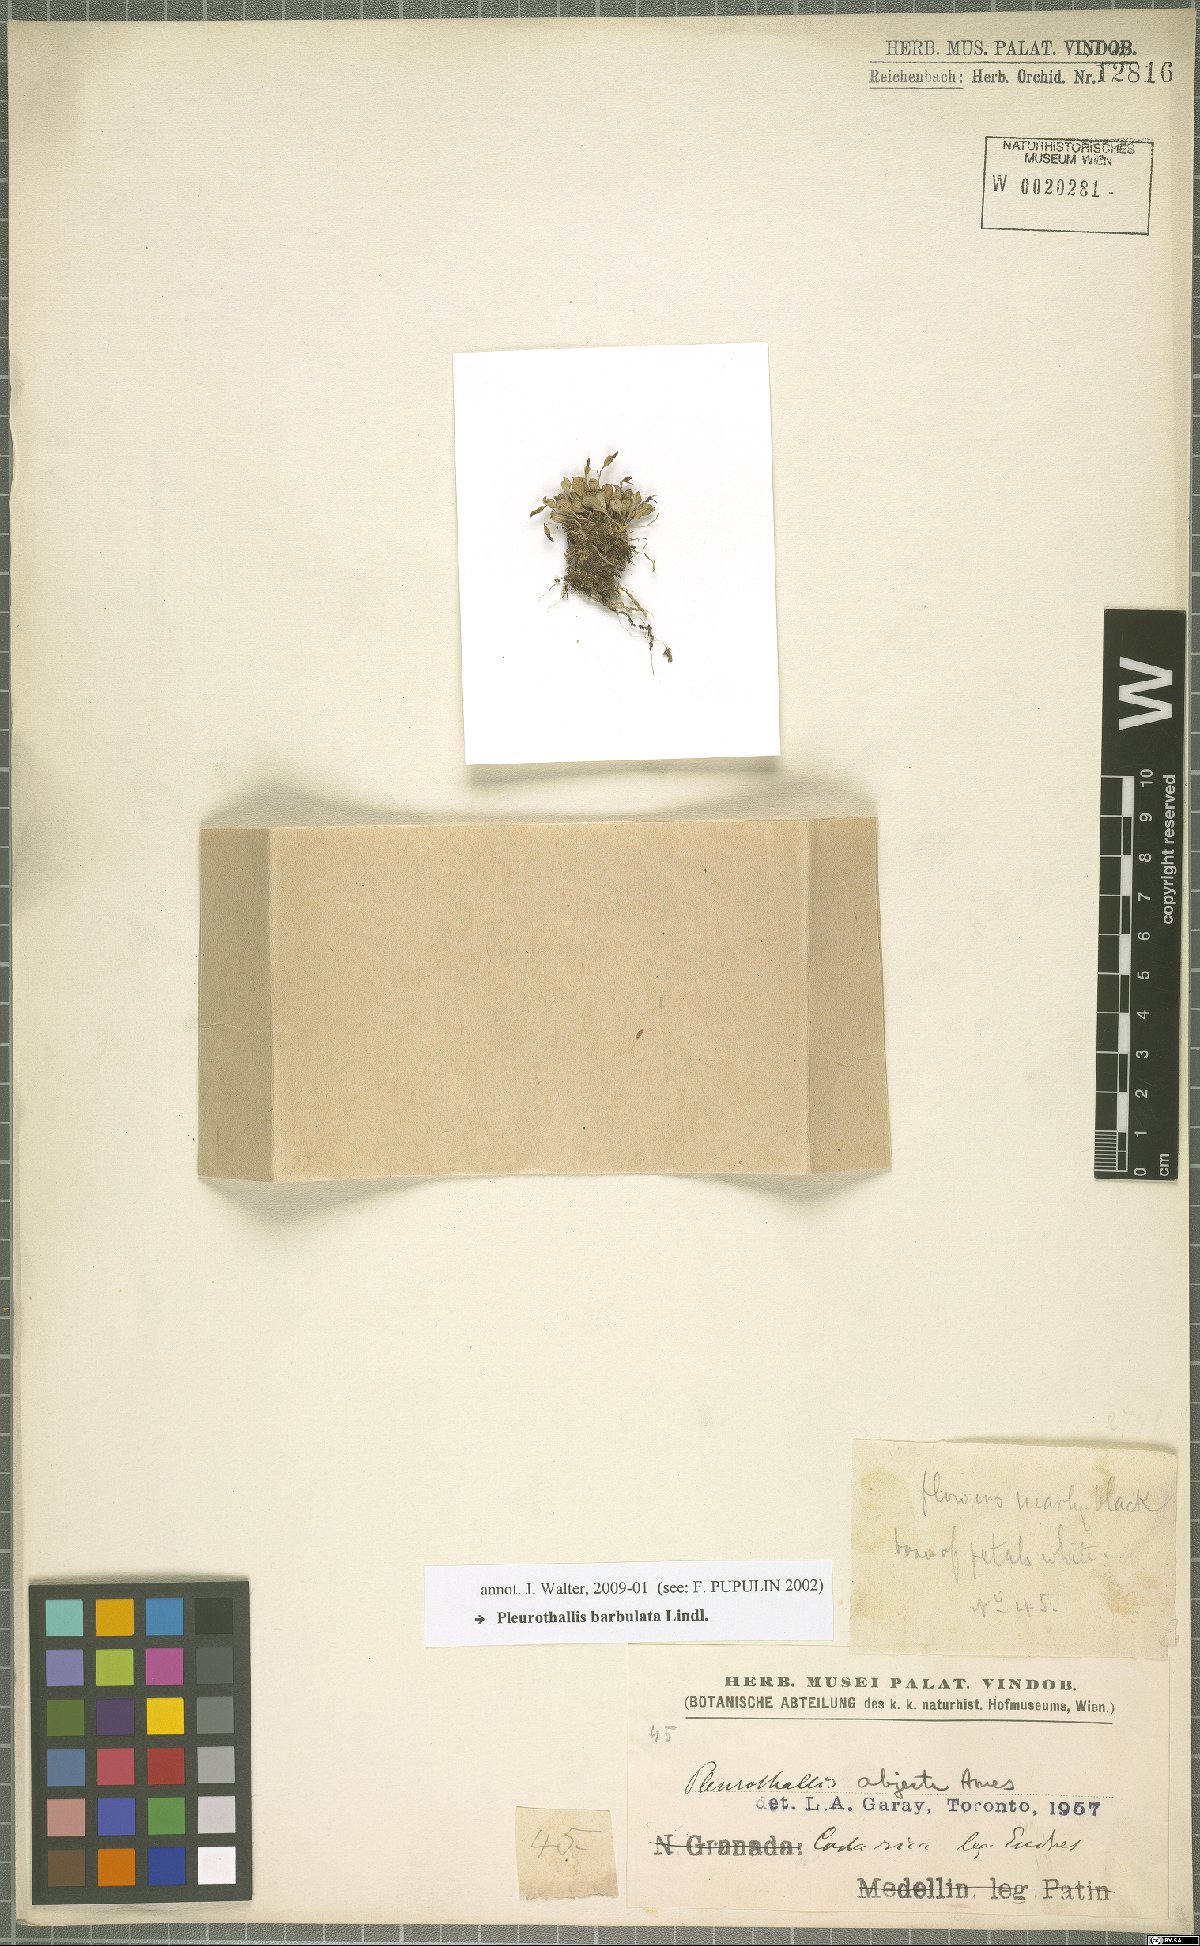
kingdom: Plantae
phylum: Tracheophyta
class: Liliopsida
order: Asparagales
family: Orchidaceae
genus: Anathallis
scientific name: Anathallis barbulata
